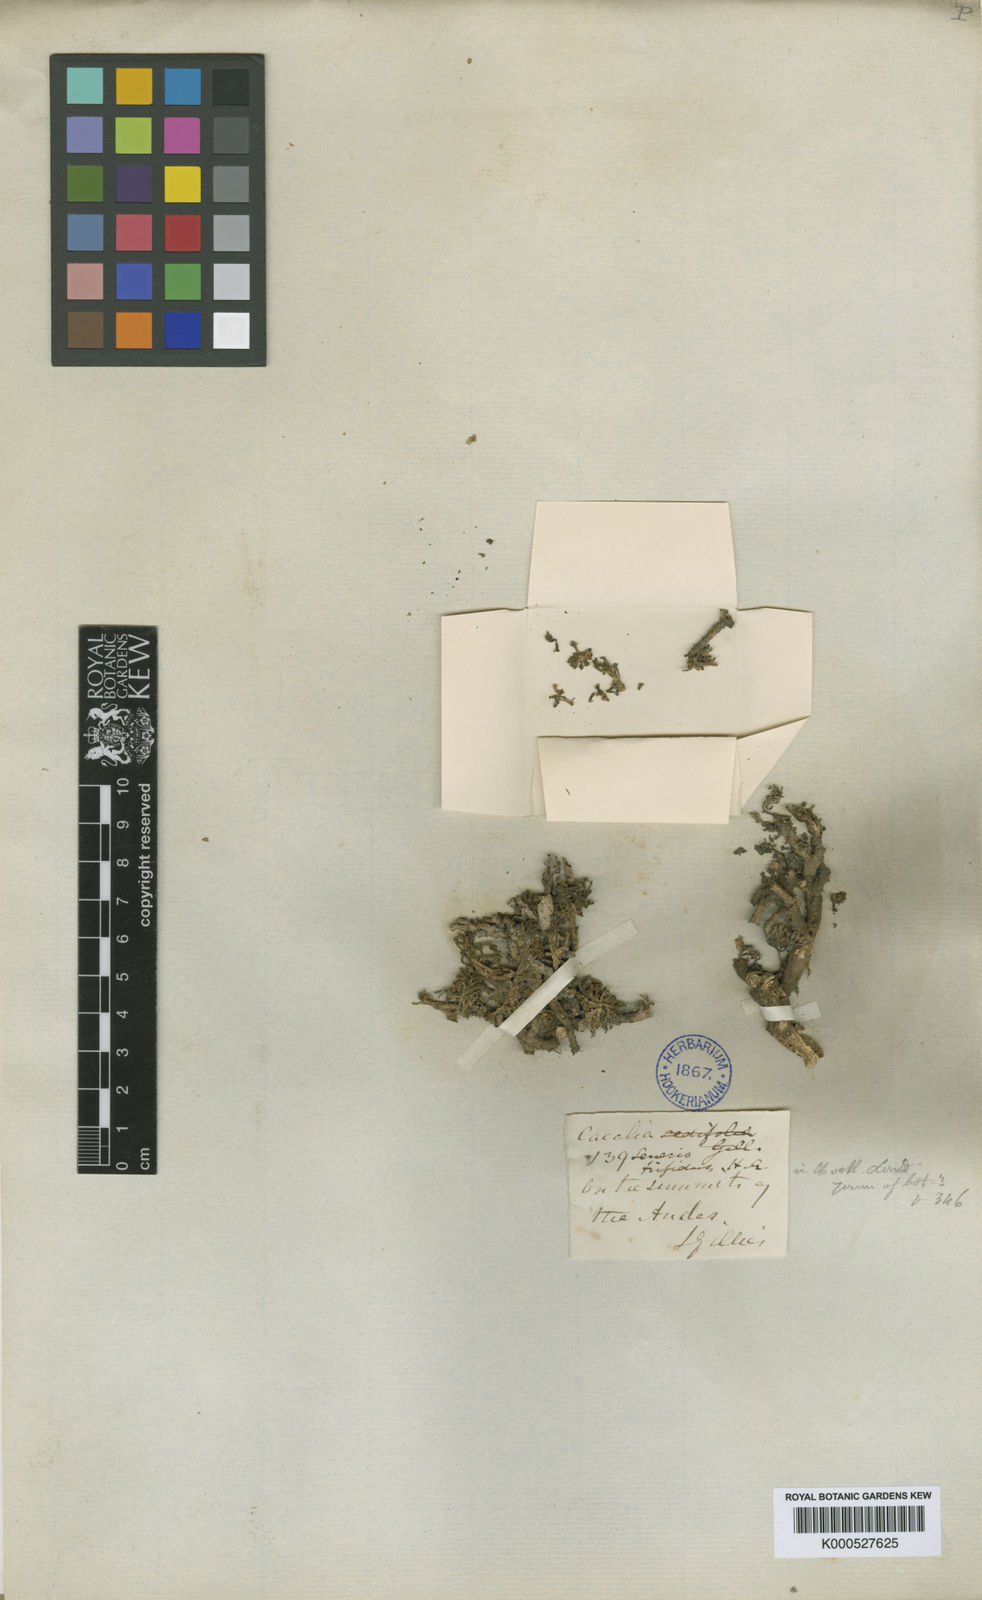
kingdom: Plantae
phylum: Tracheophyta
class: Magnoliopsida
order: Asterales
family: Asteraceae
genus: Senecio
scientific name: Senecio trifidus
